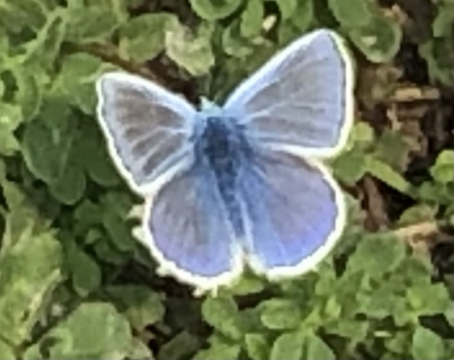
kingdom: Animalia
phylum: Arthropoda
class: Insecta
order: Lepidoptera
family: Lycaenidae
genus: Polyommatus
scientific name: Polyommatus icarus
